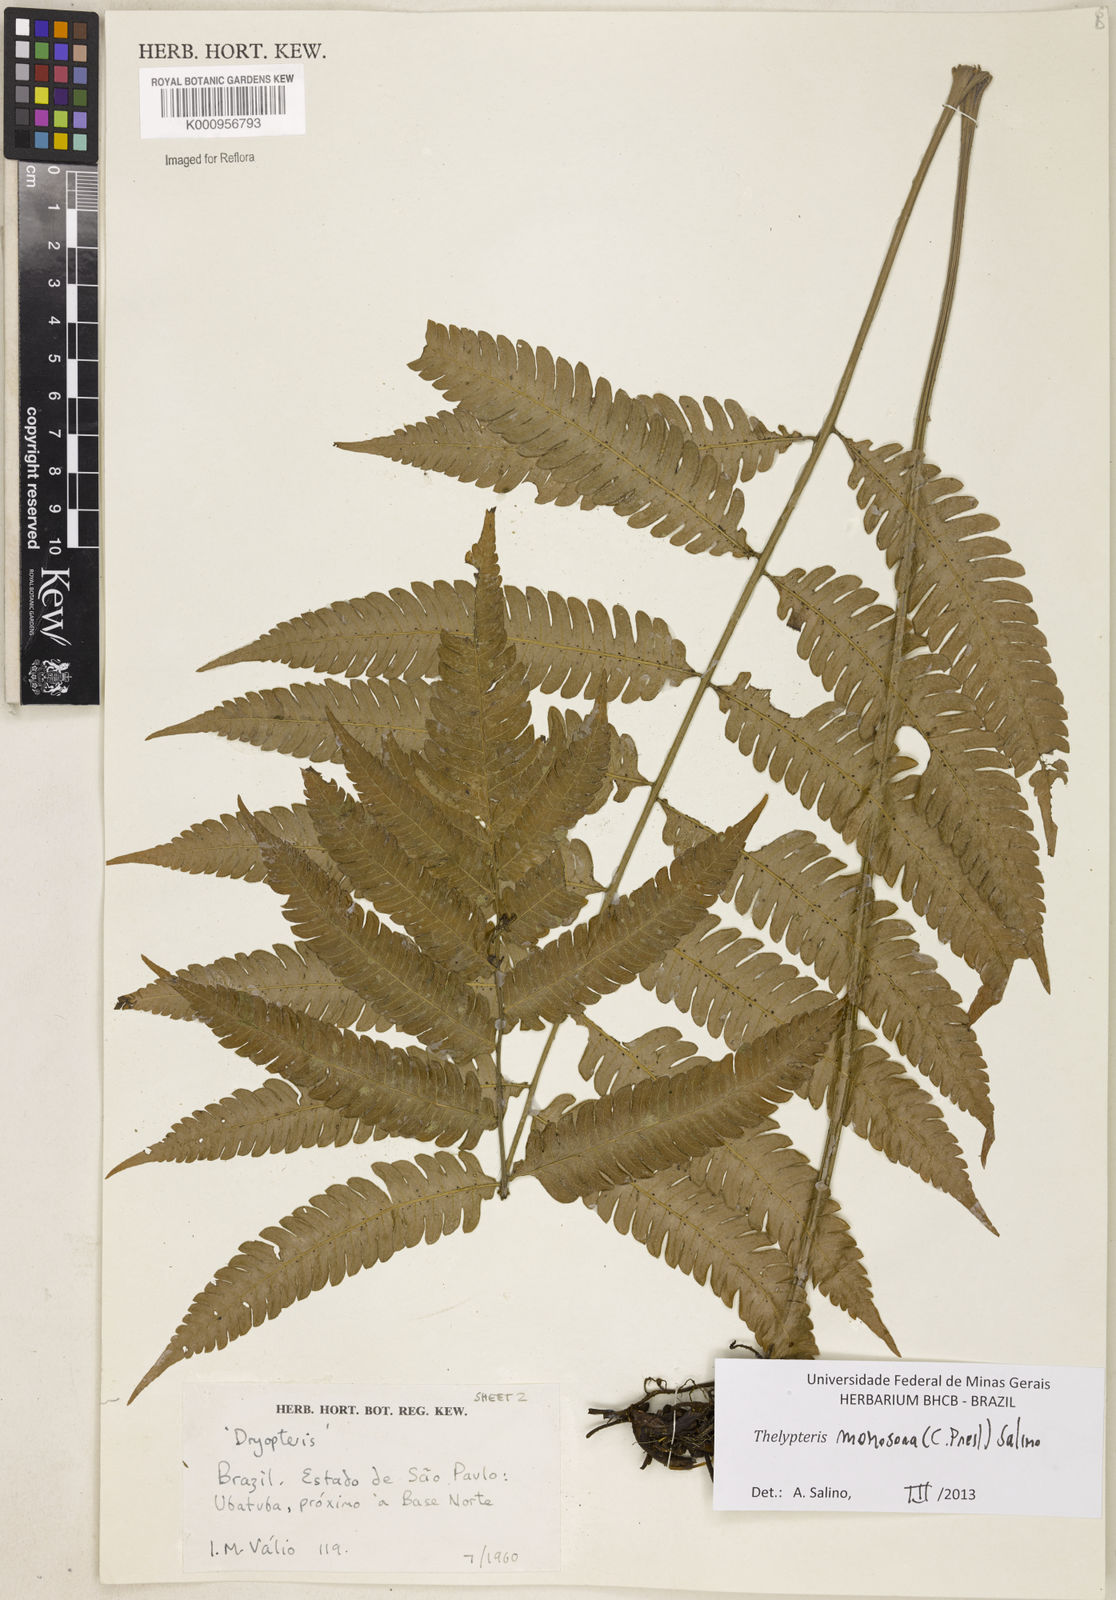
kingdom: Plantae
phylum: Tracheophyta
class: Polypodiopsida
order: Polypodiales
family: Thelypteridaceae
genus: Goniopteris
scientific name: Goniopteris monosora
